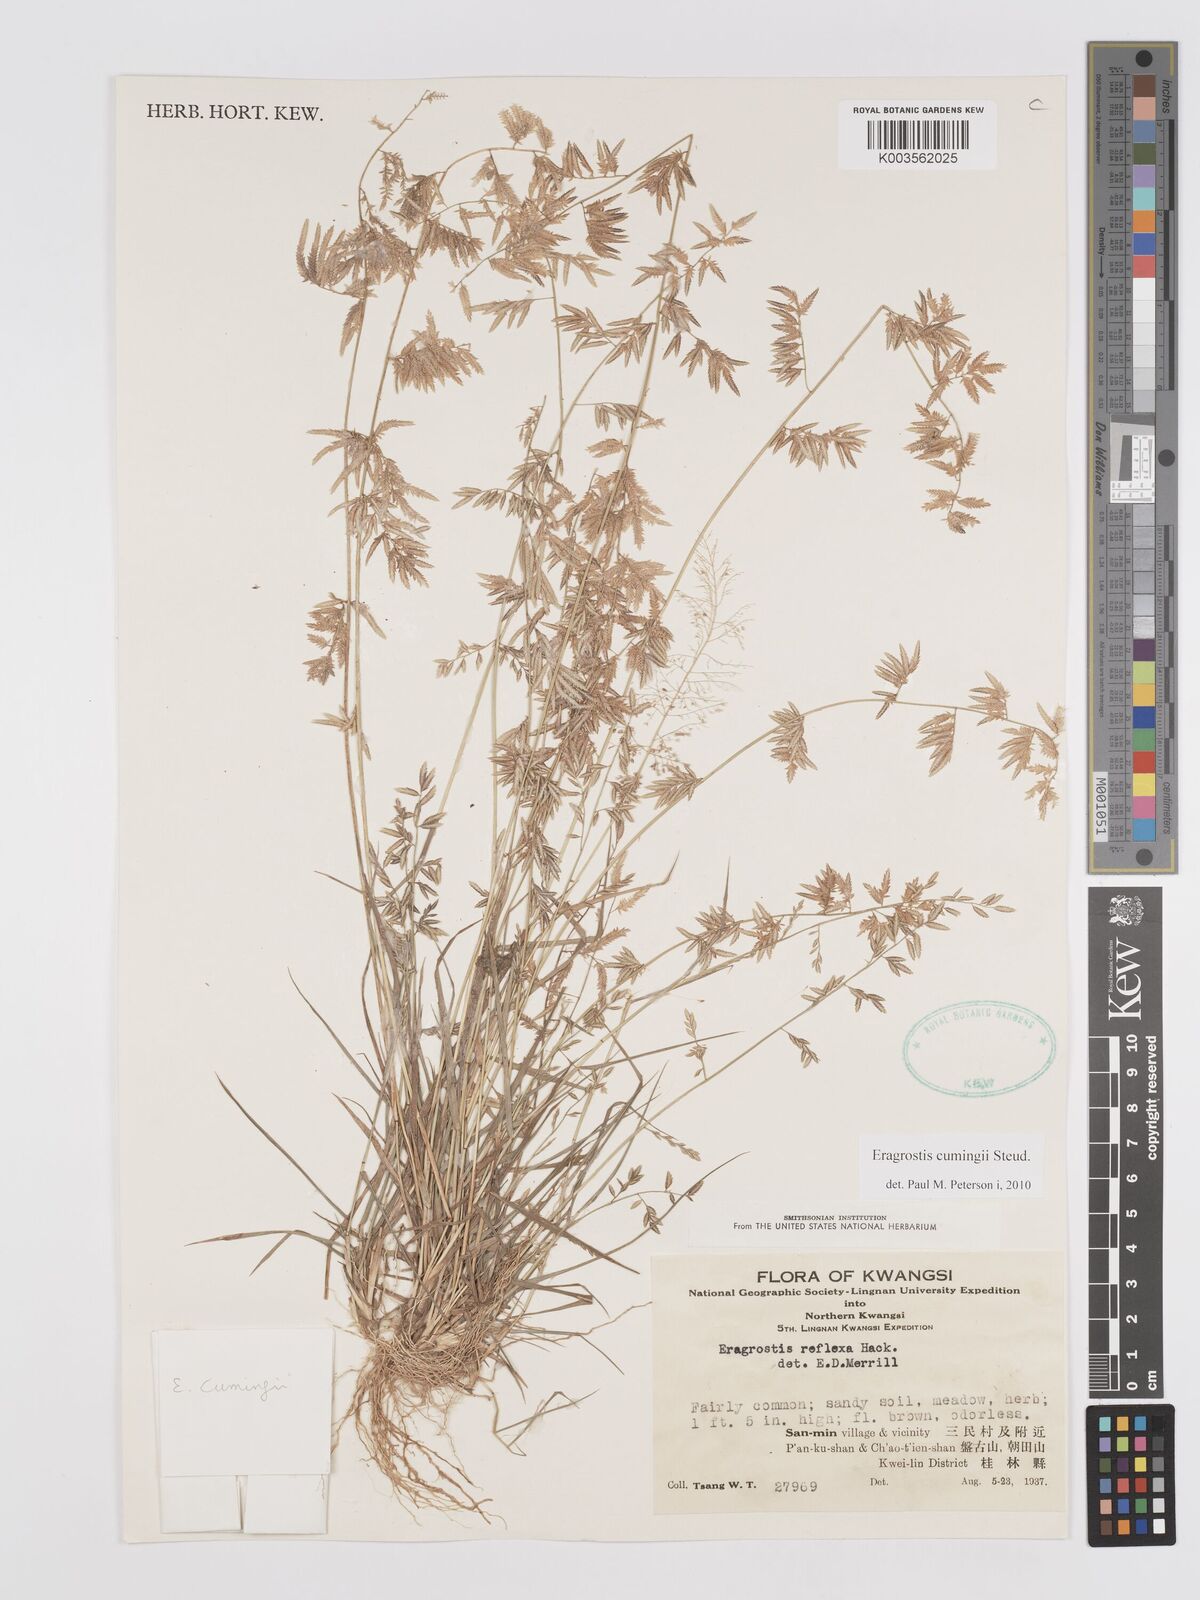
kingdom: Plantae
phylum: Tracheophyta
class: Liliopsida
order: Poales
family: Poaceae
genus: Eragrostis
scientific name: Eragrostis cumingii
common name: Cuming's lovegrass
